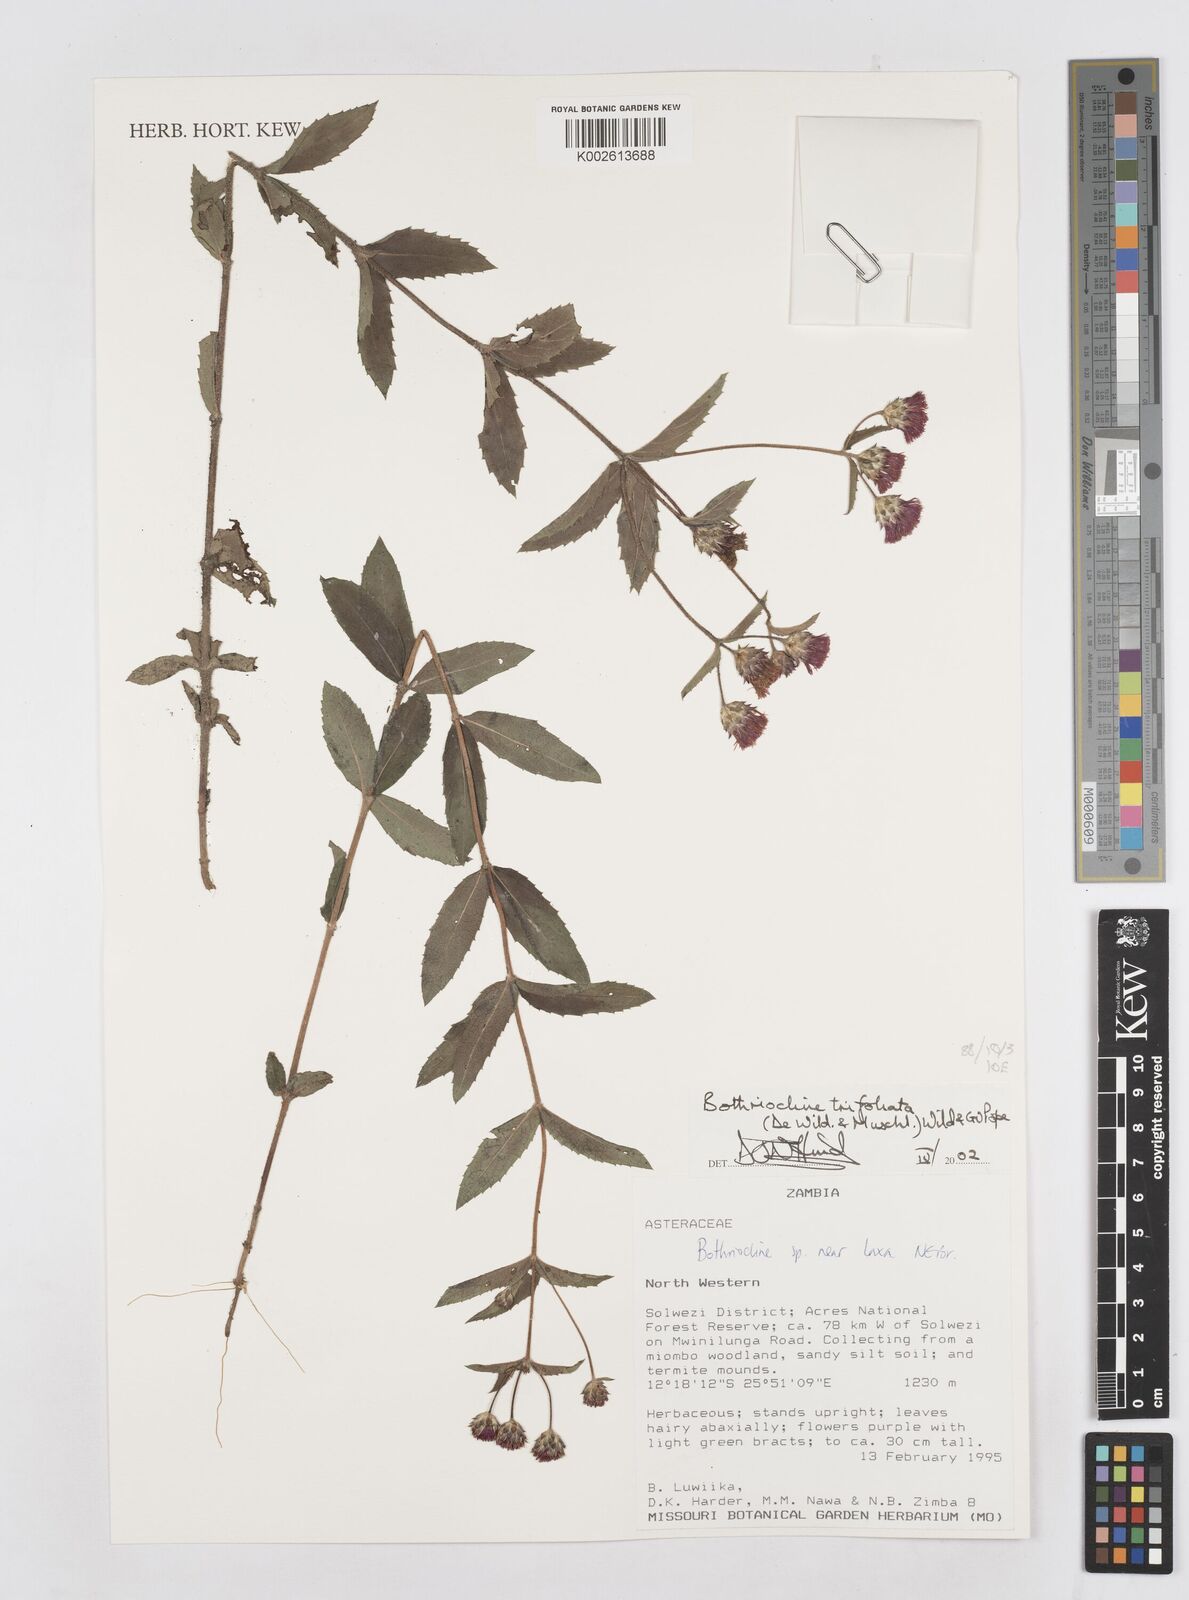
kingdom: Plantae
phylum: Tracheophyta
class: Magnoliopsida
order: Asterales
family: Asteraceae
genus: Bothriocline
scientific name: Bothriocline laxa
